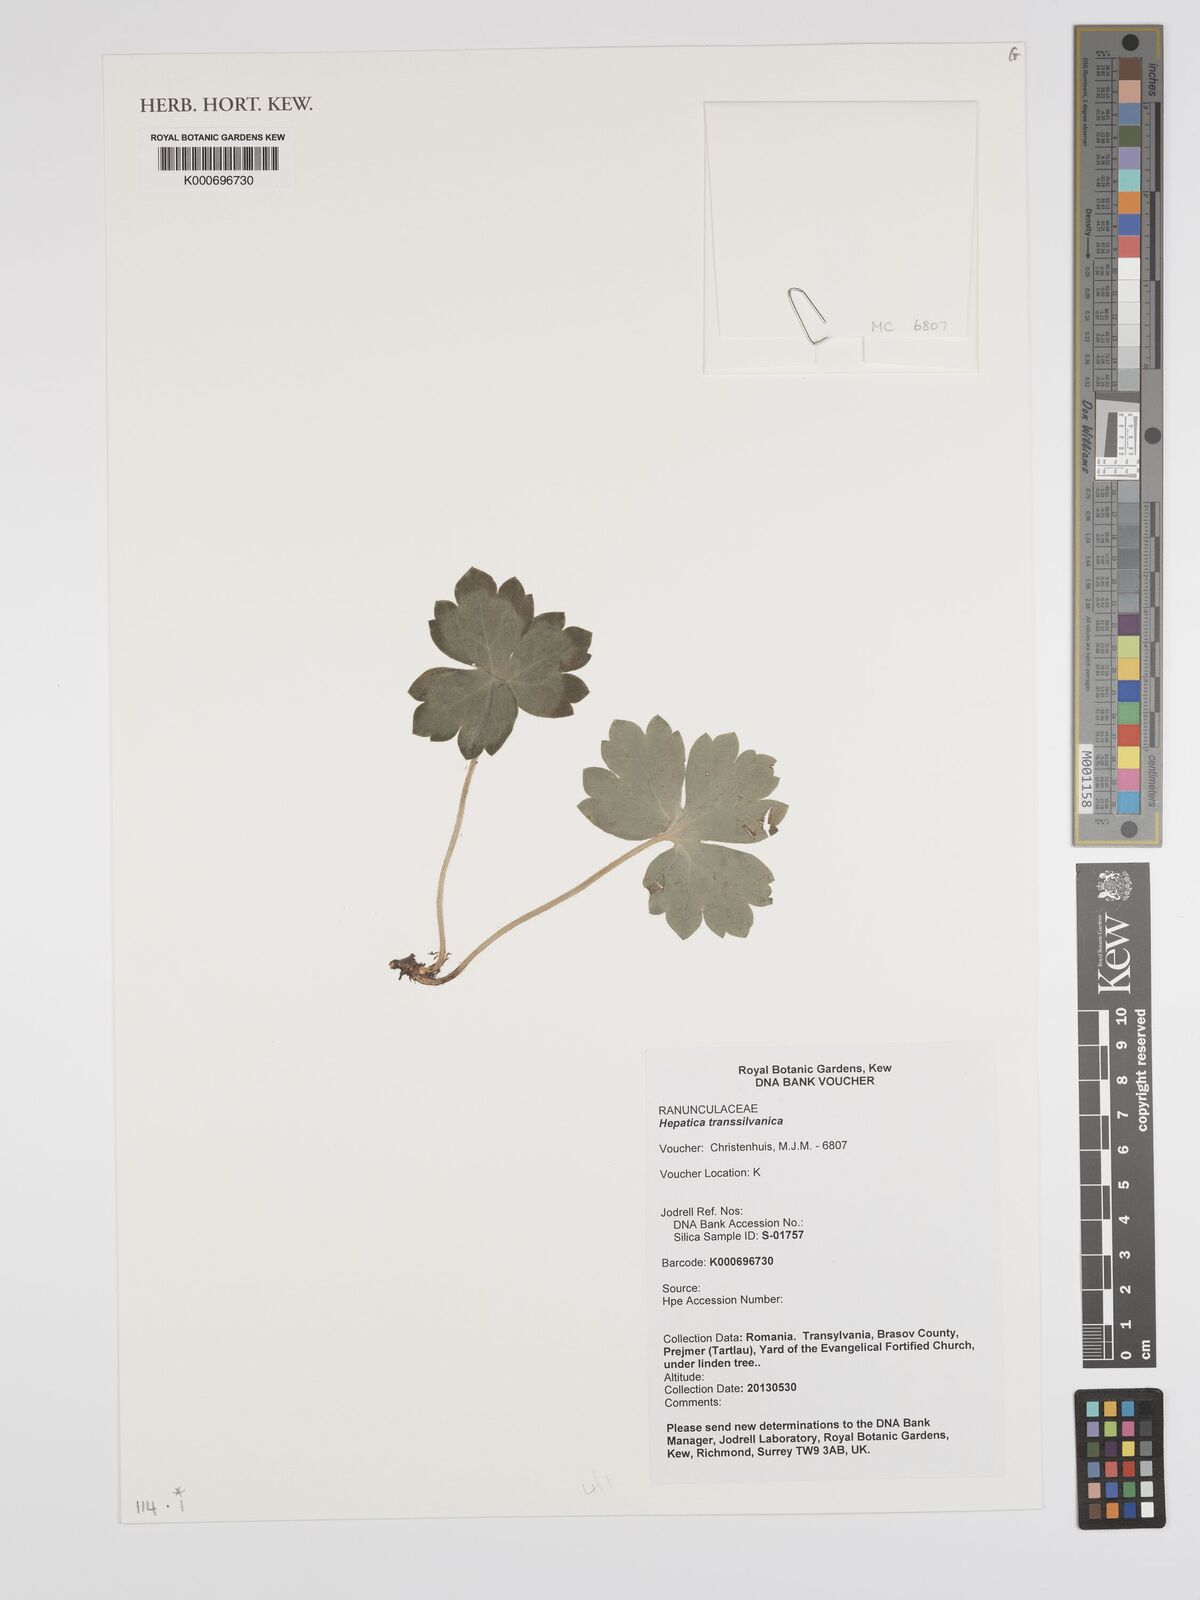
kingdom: Plantae
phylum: Tracheophyta
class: Magnoliopsida
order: Ranunculales
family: Ranunculaceae
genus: Hepatica
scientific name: Hepatica transsilvanica
